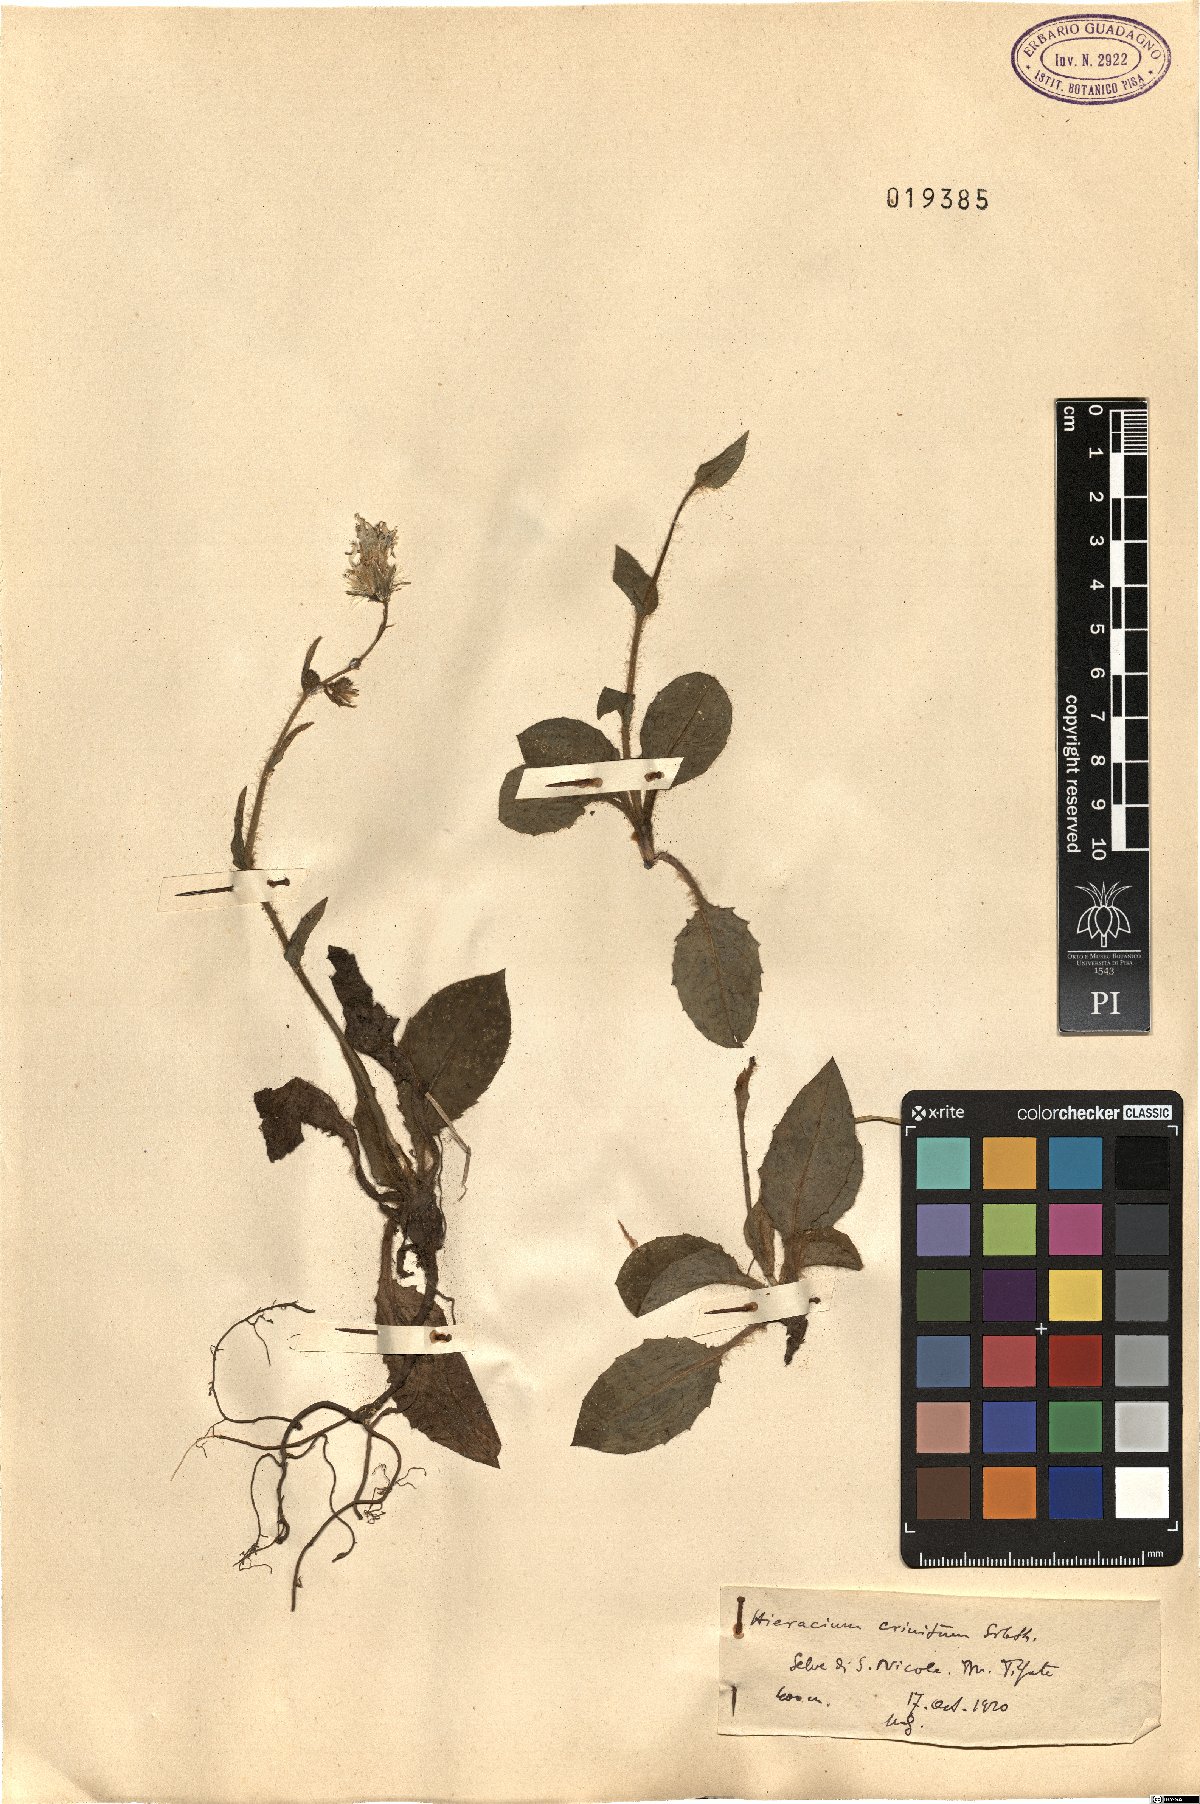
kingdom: Plantae
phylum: Tracheophyta
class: Magnoliopsida
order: Asterales
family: Asteraceae
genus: Hieracium
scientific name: Hieracium racemosum
